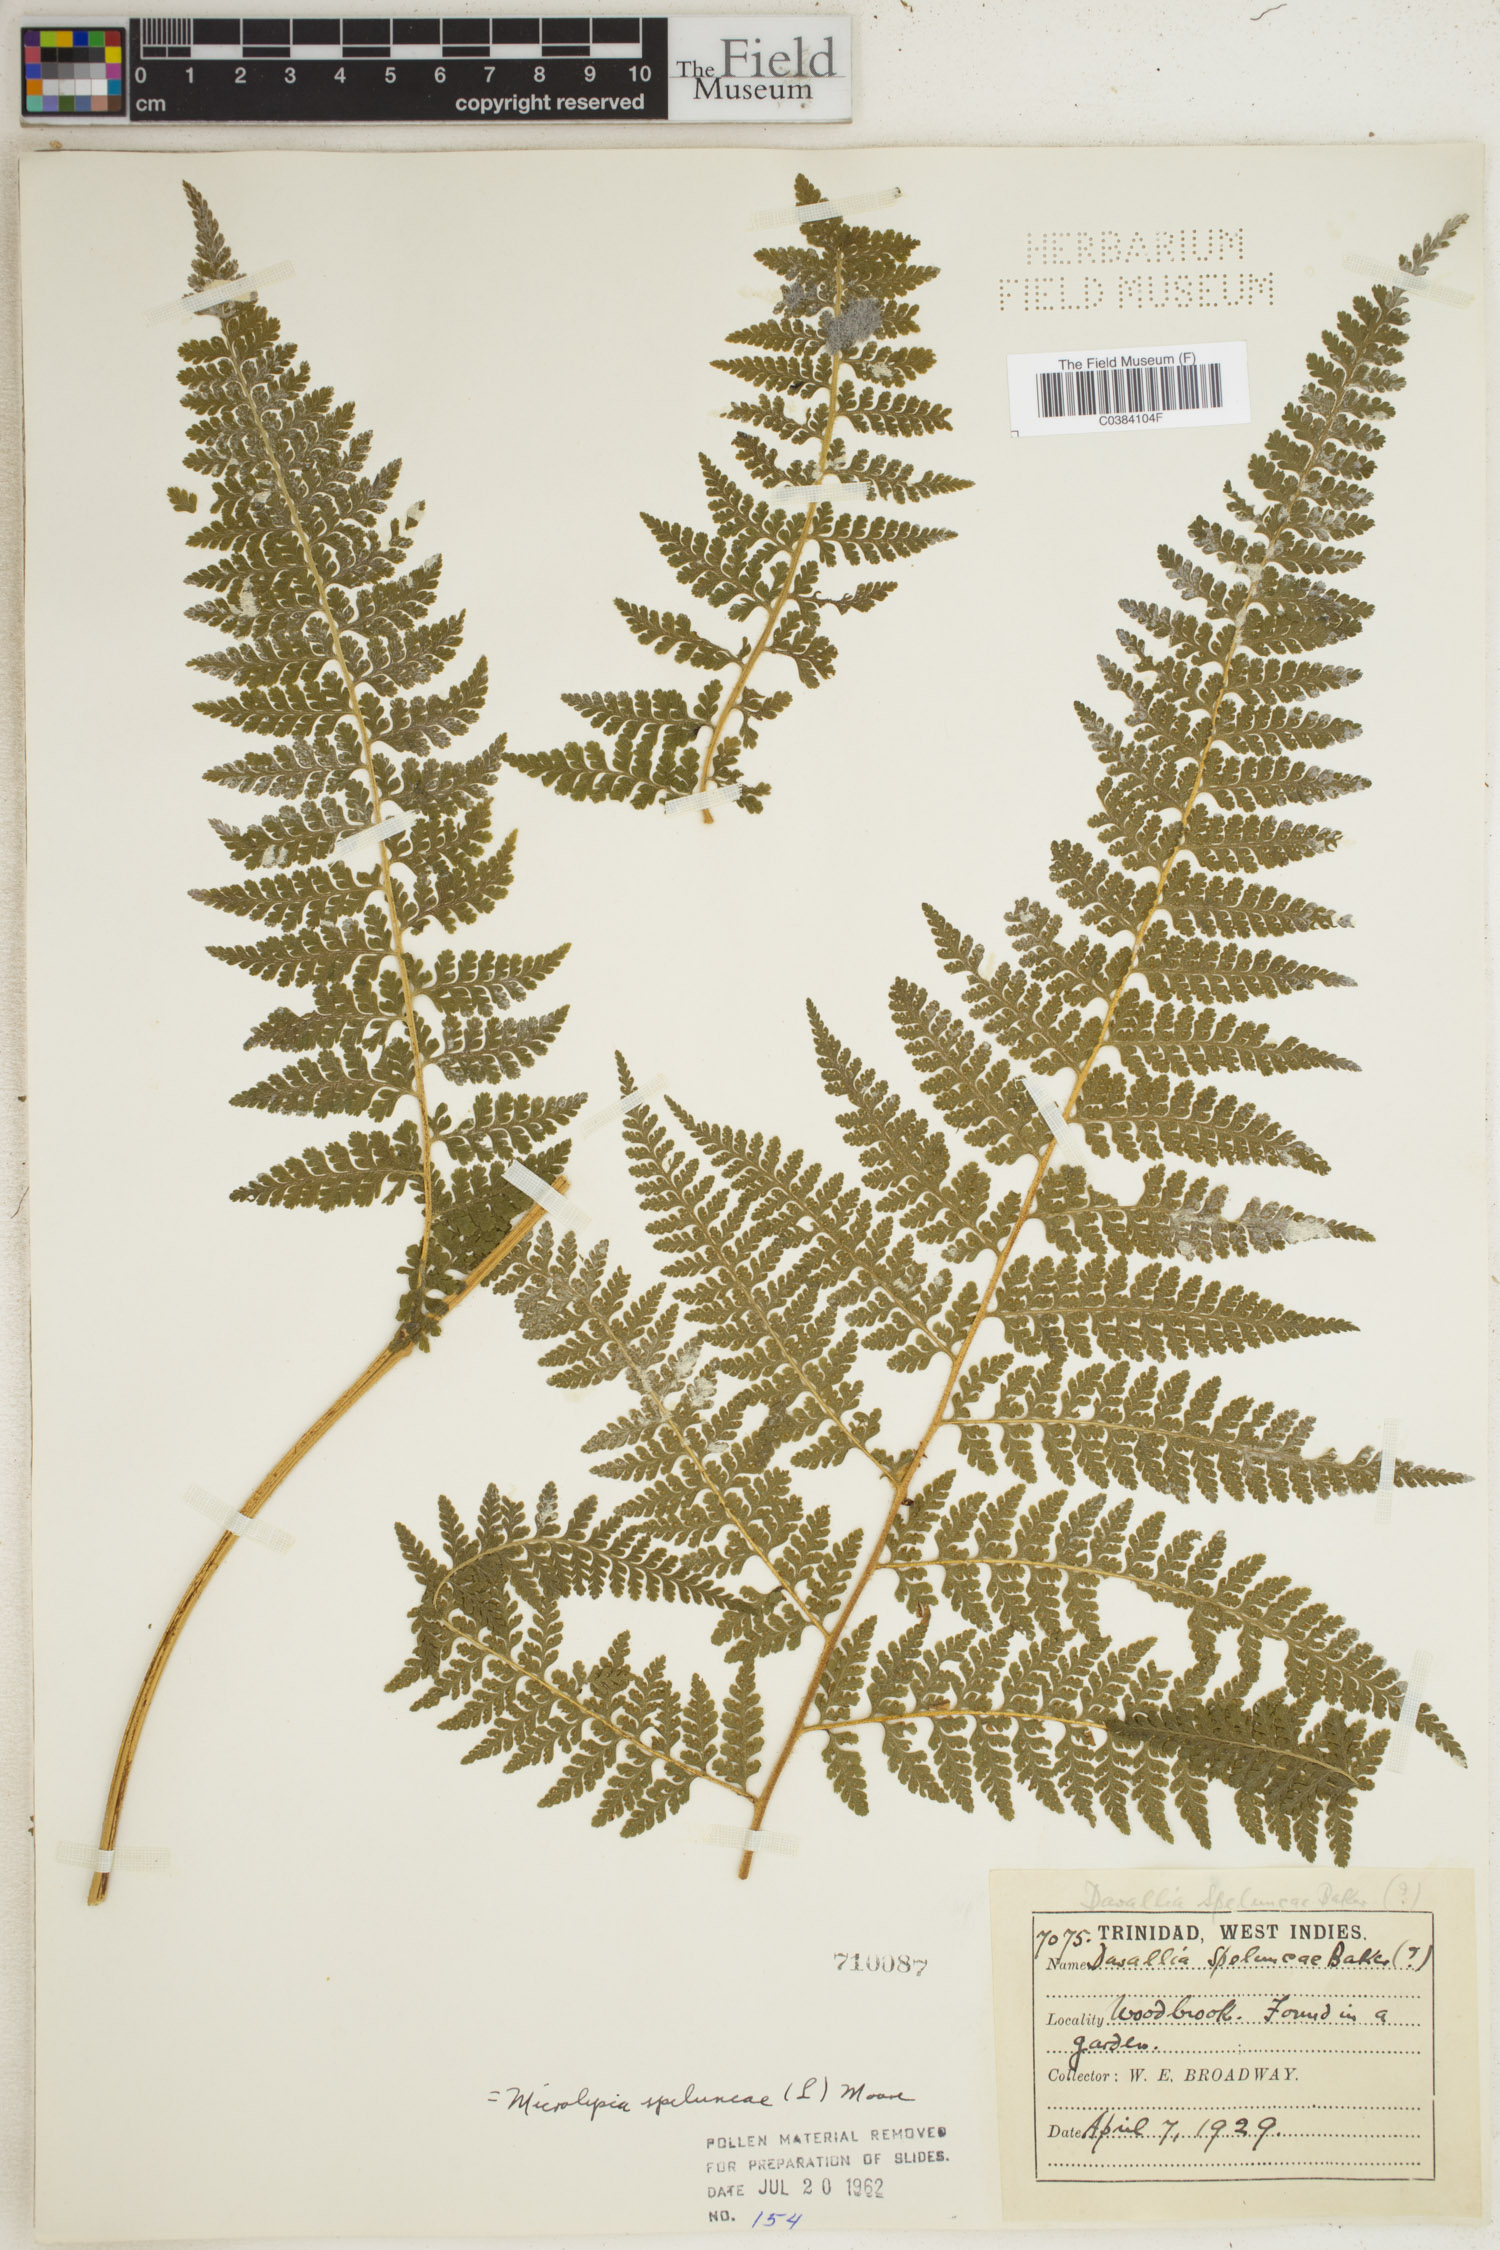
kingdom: Plantae
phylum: Tracheophyta
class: Polypodiopsida
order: Polypodiales
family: Dennstaedtiaceae
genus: Microlepia
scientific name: Microlepia speluncae
